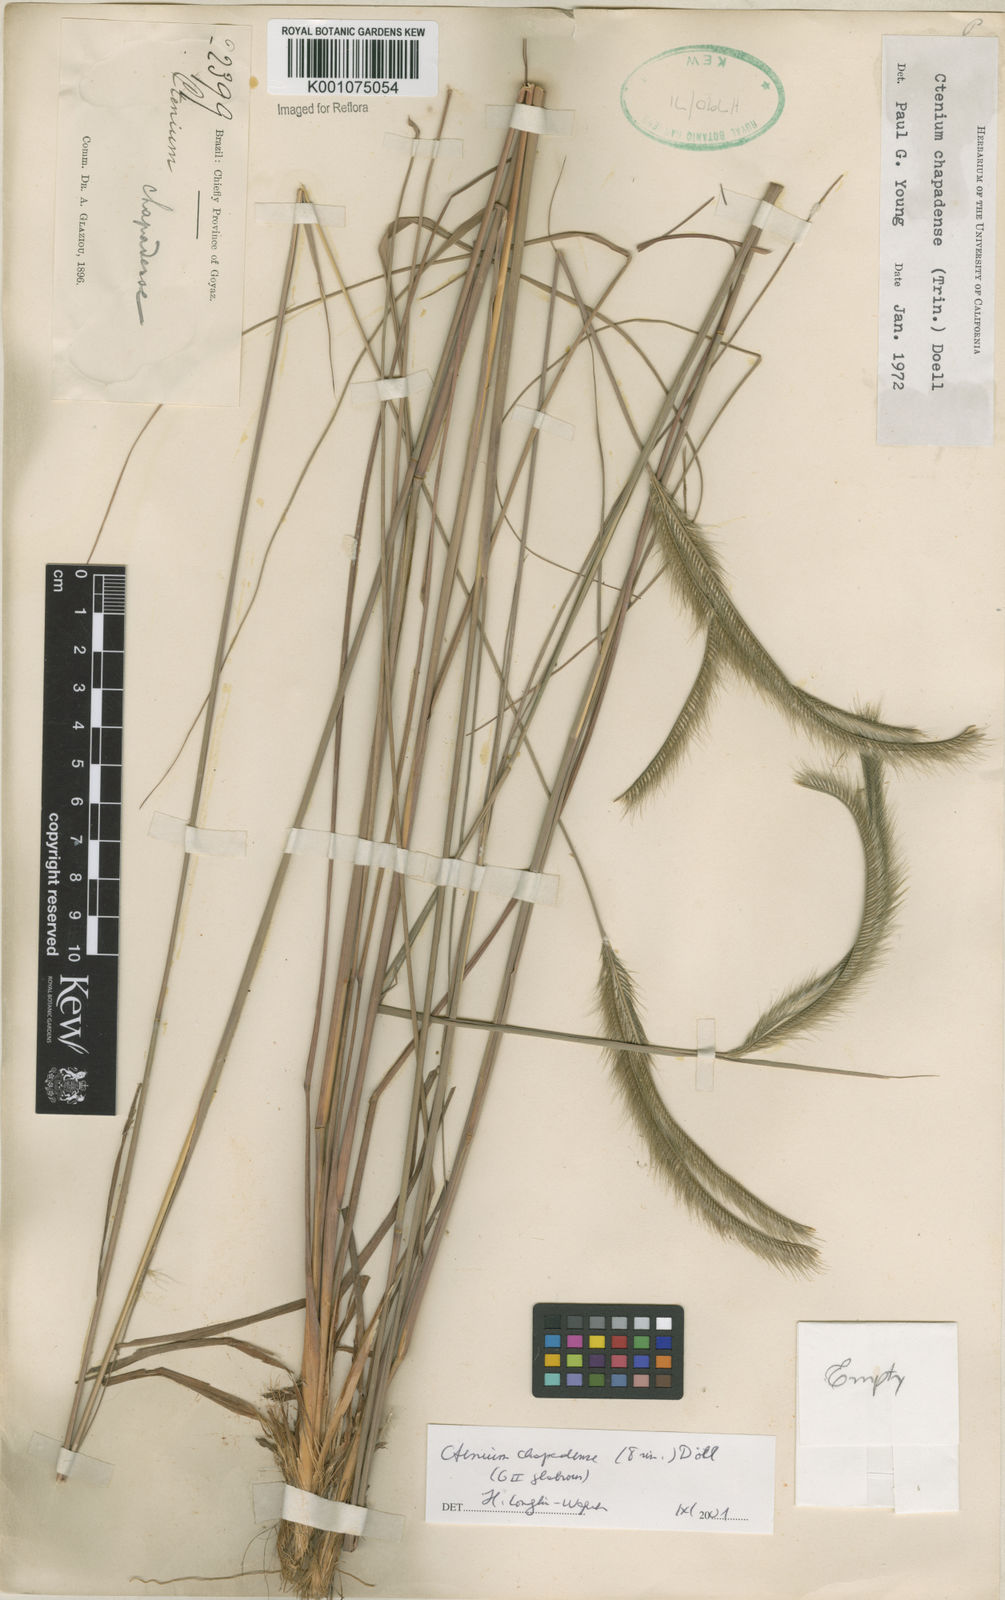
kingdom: Plantae
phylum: Tracheophyta
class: Liliopsida
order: Poales
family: Poaceae
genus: Ctenium
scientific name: Ctenium
